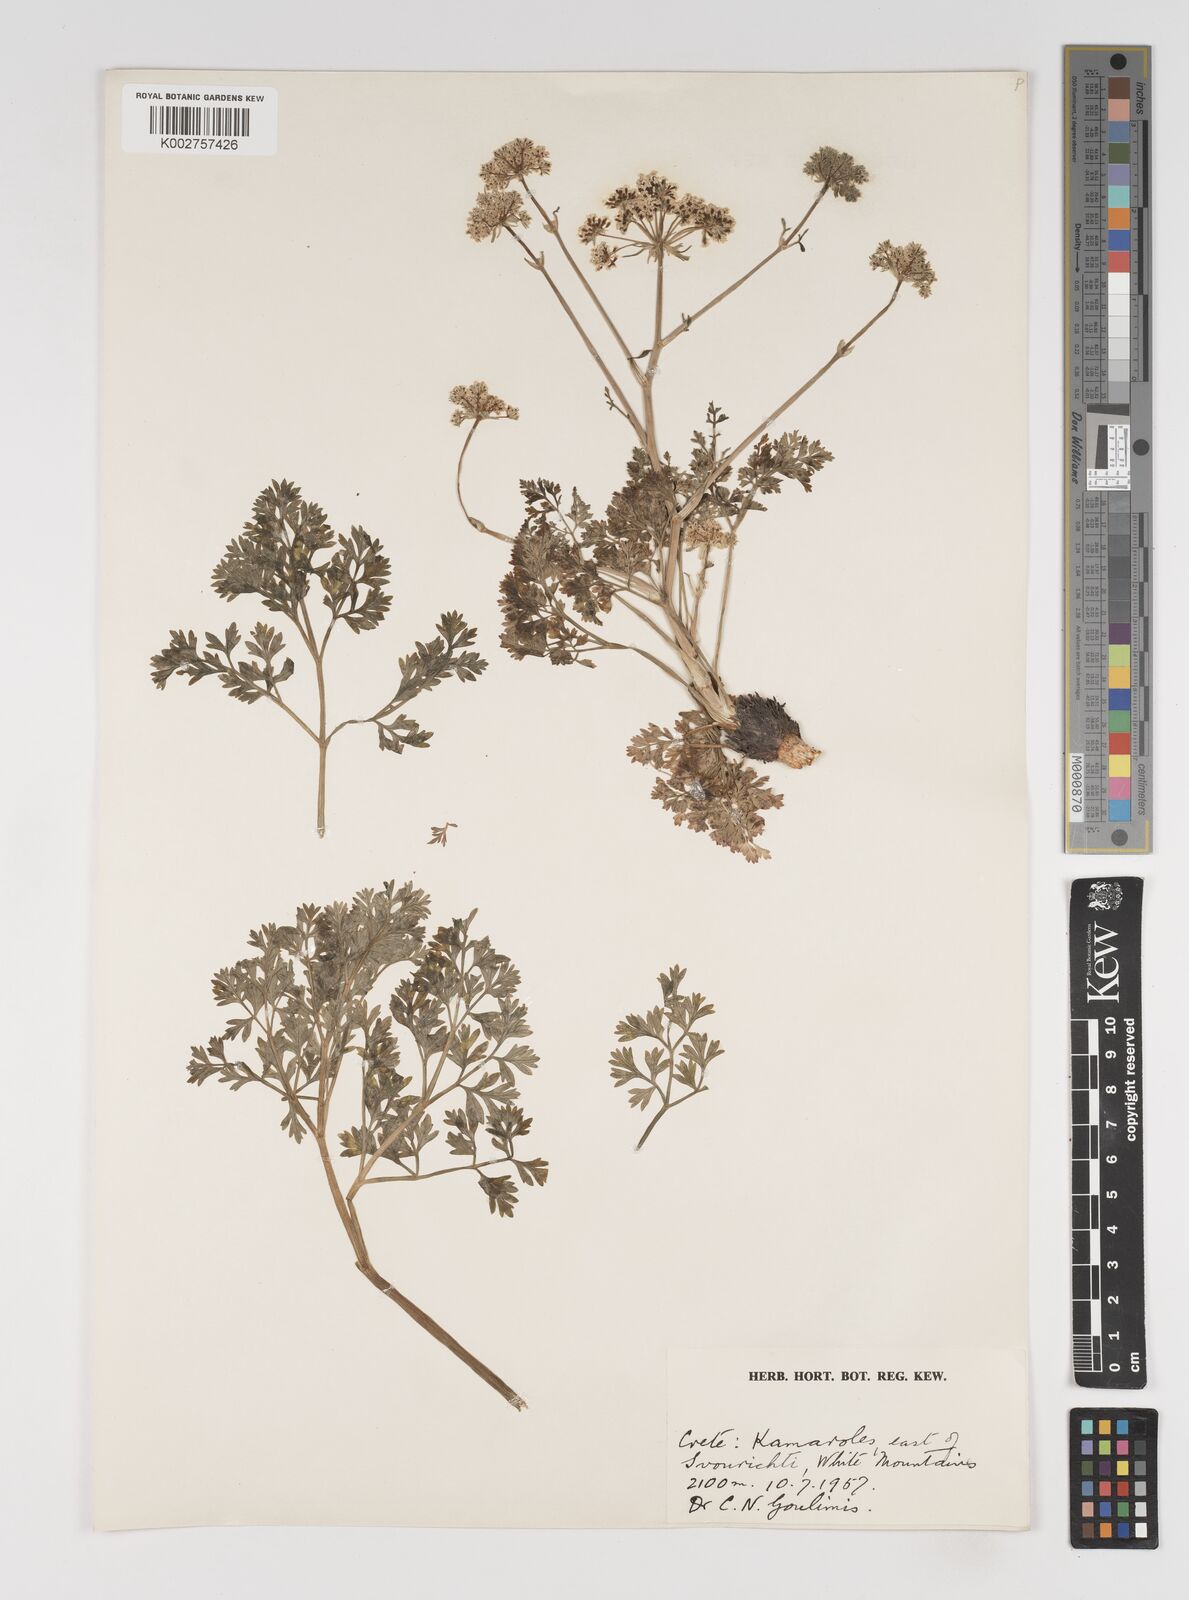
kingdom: Plantae
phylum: Tracheophyta
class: Magnoliopsida
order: Apiales
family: Apiaceae
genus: Seseli
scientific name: Seseli
